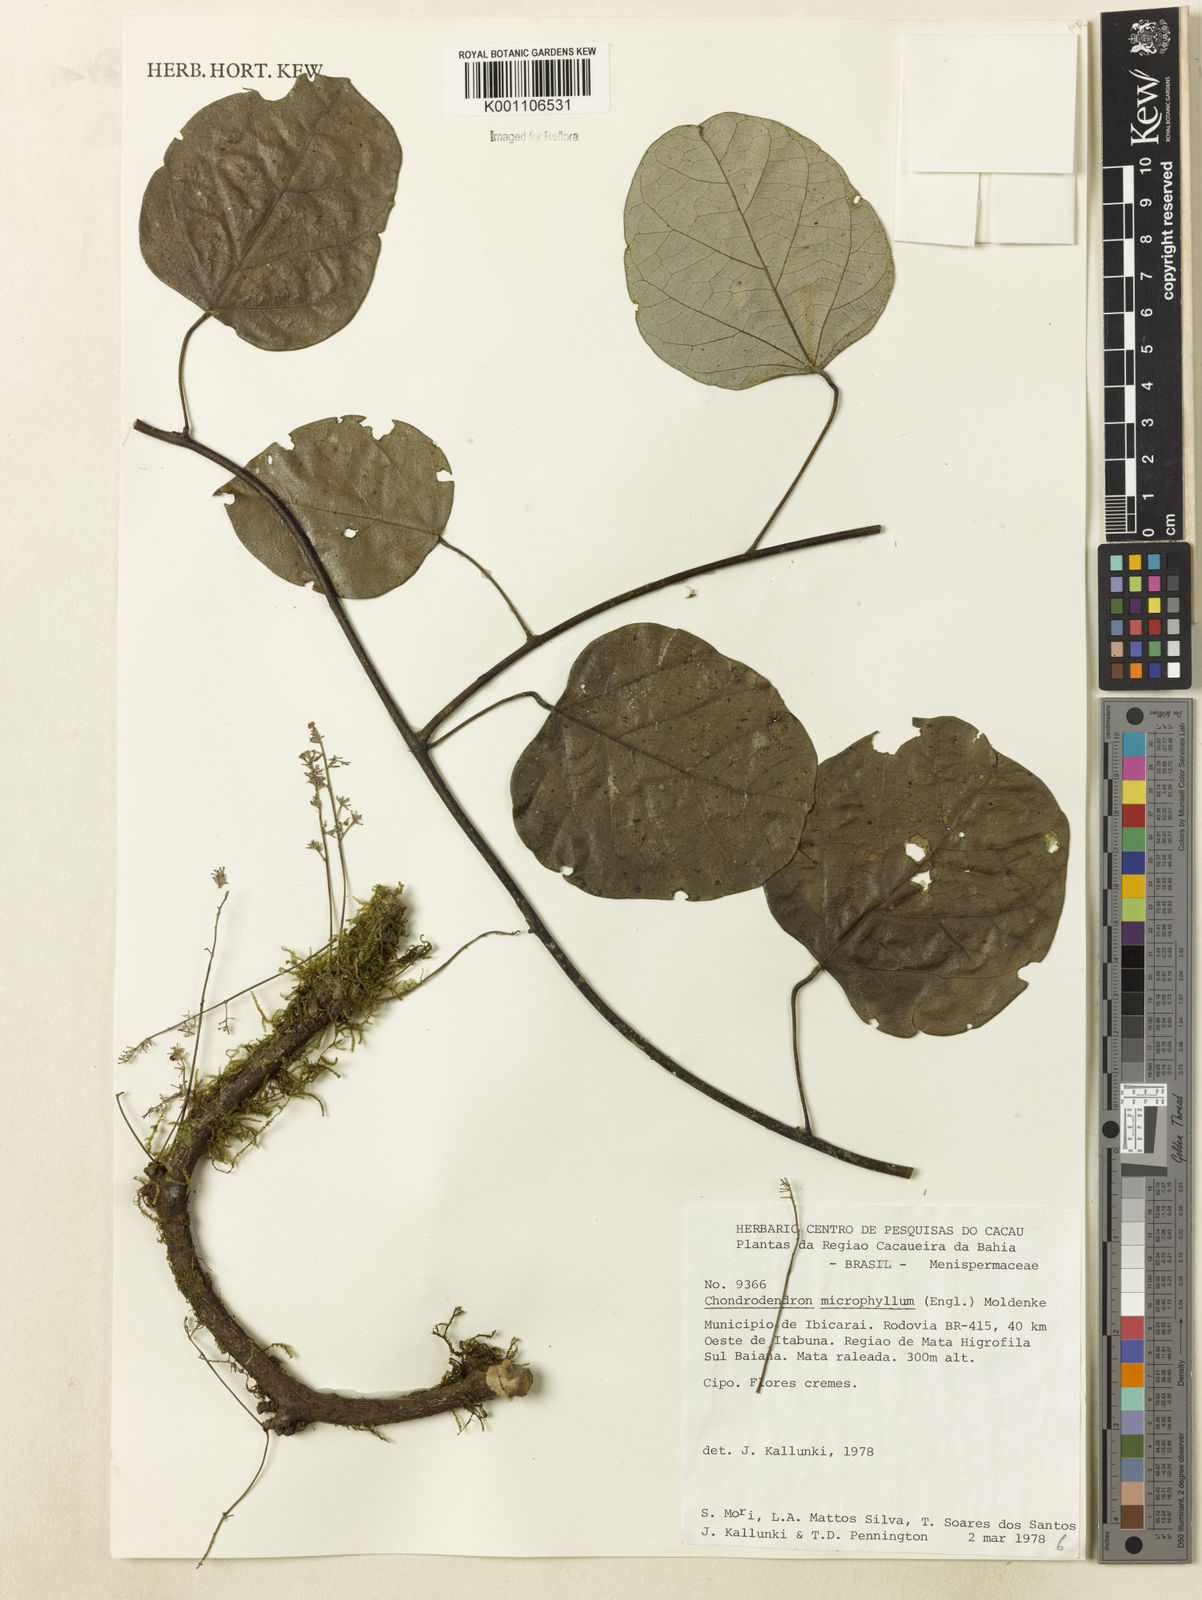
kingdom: Plantae
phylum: Tracheophyta
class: Magnoliopsida
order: Ranunculales
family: Menispermaceae
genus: Chondrodendron
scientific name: Chondrodendron microphyllum
